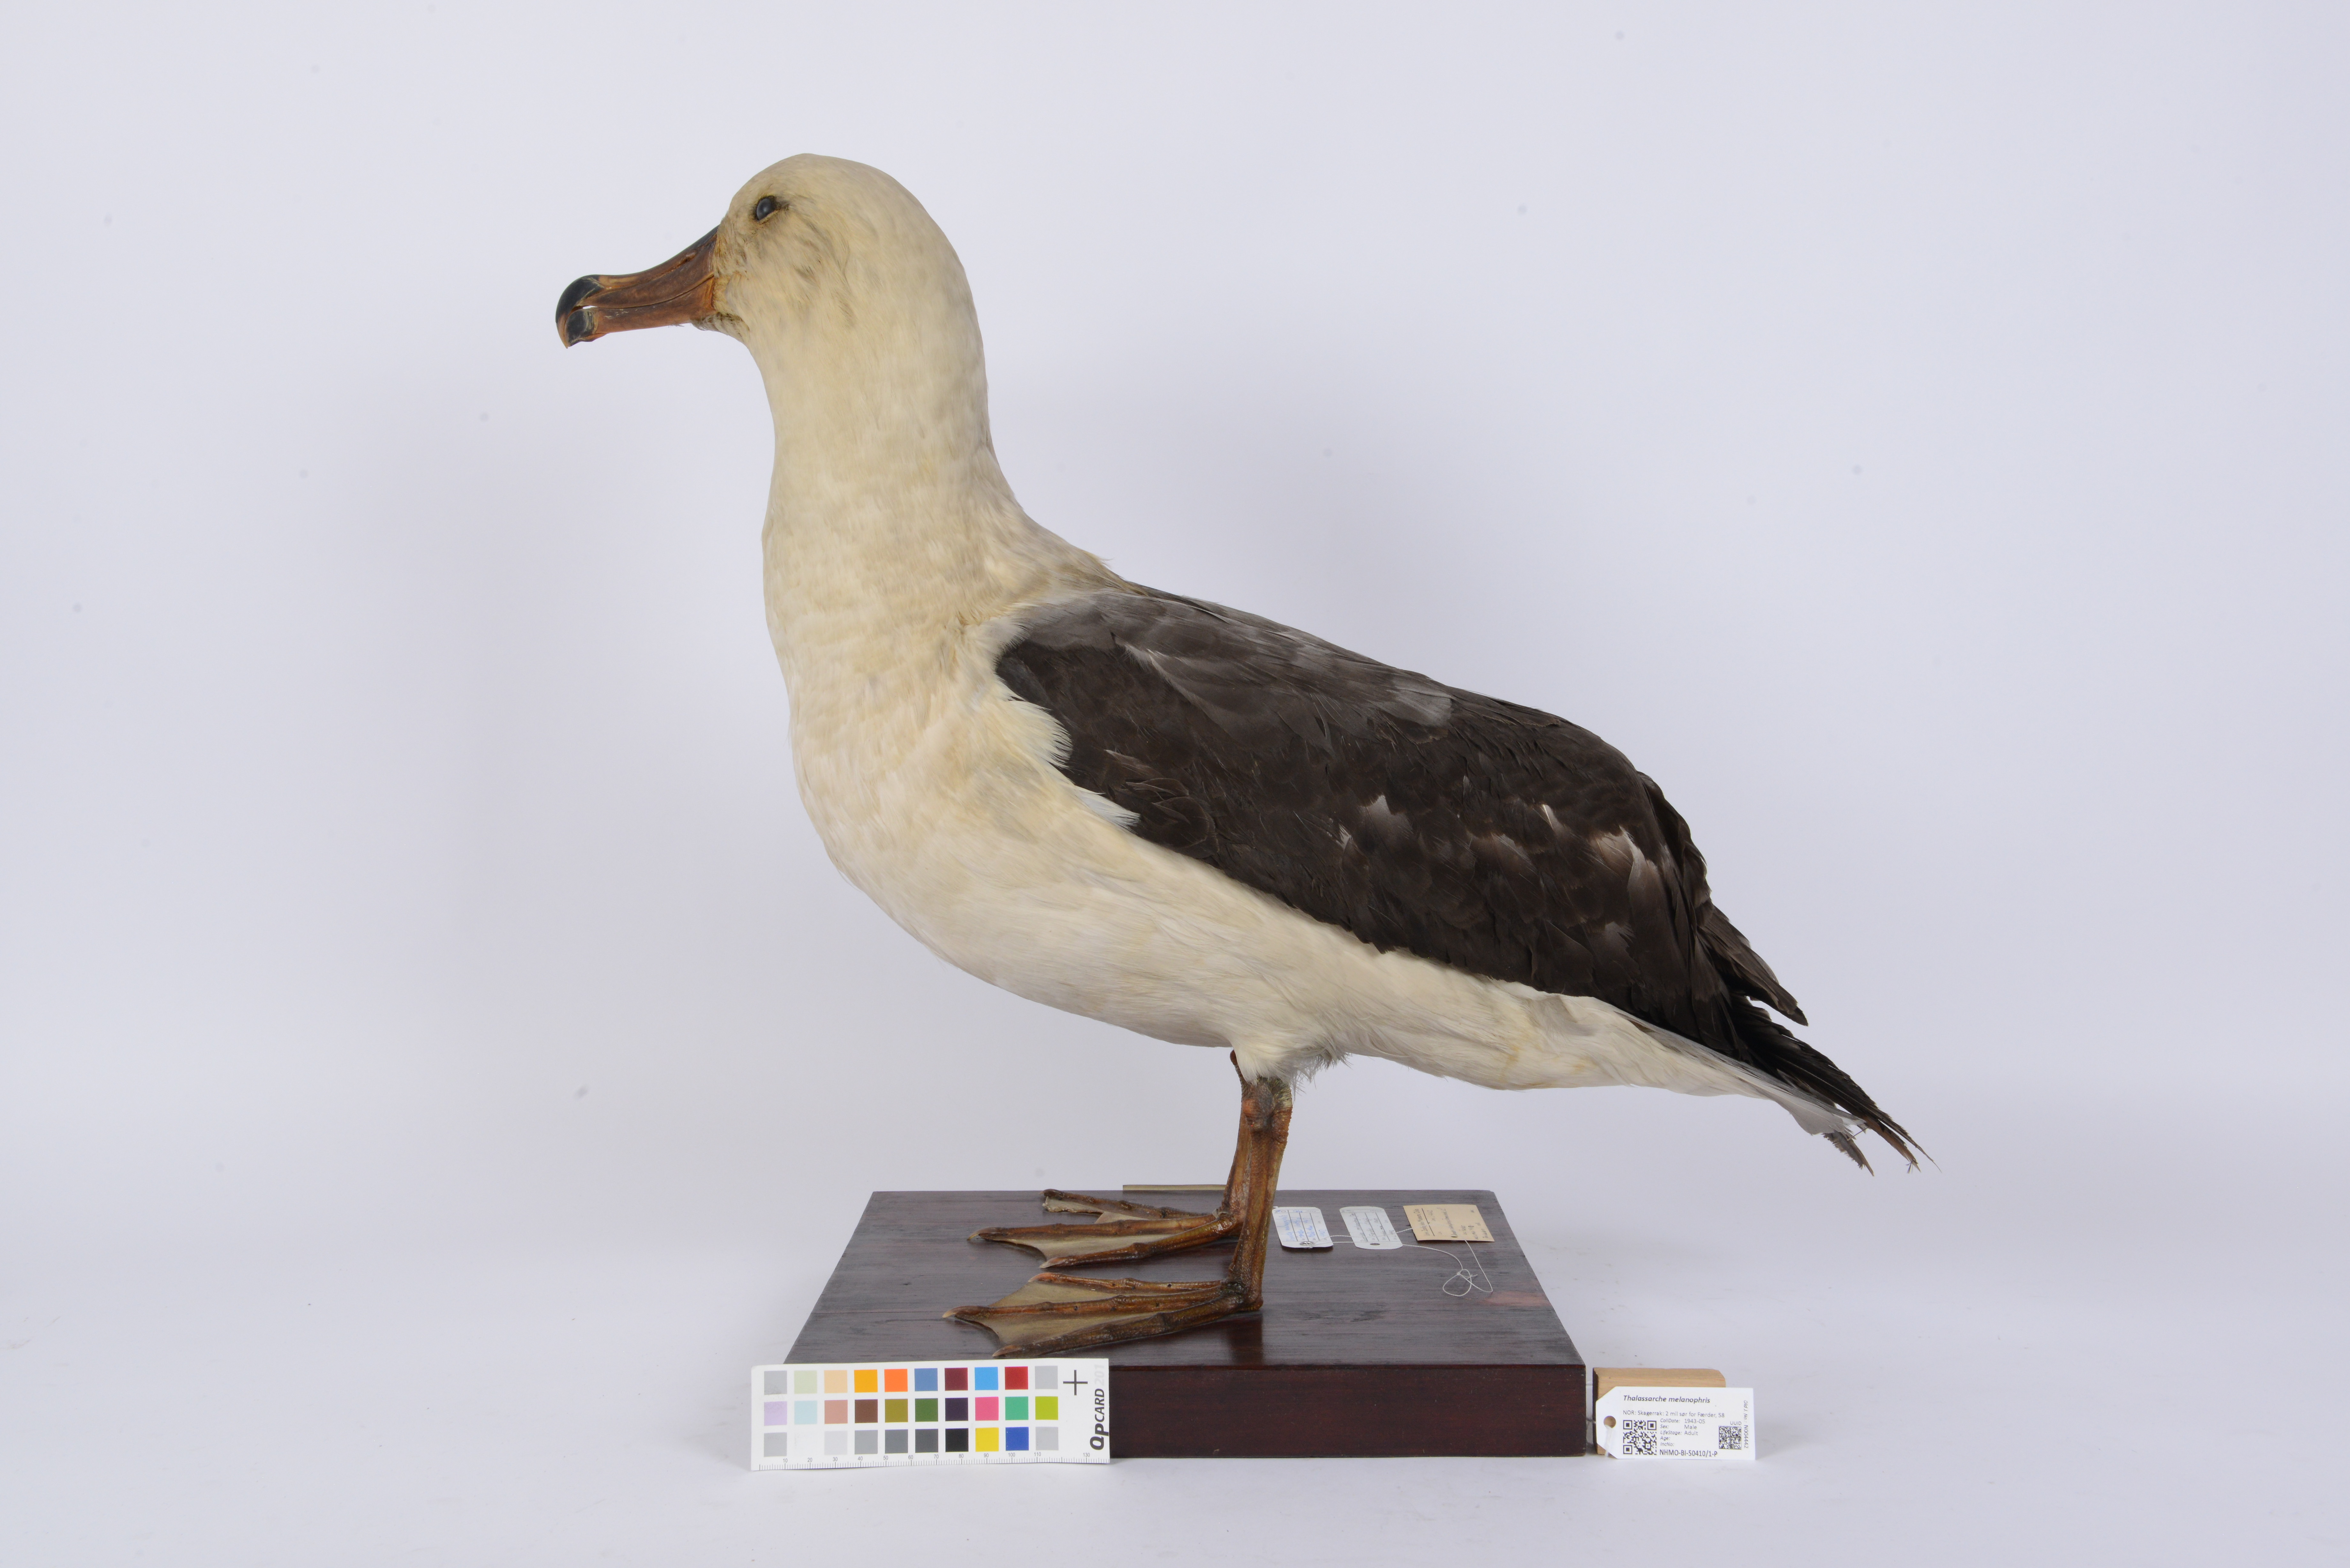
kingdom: Animalia
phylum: Chordata
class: Aves
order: Procellariiformes
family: Diomedeidae
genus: Thalassarche
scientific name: Thalassarche melanophris
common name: Black-browed albatross
